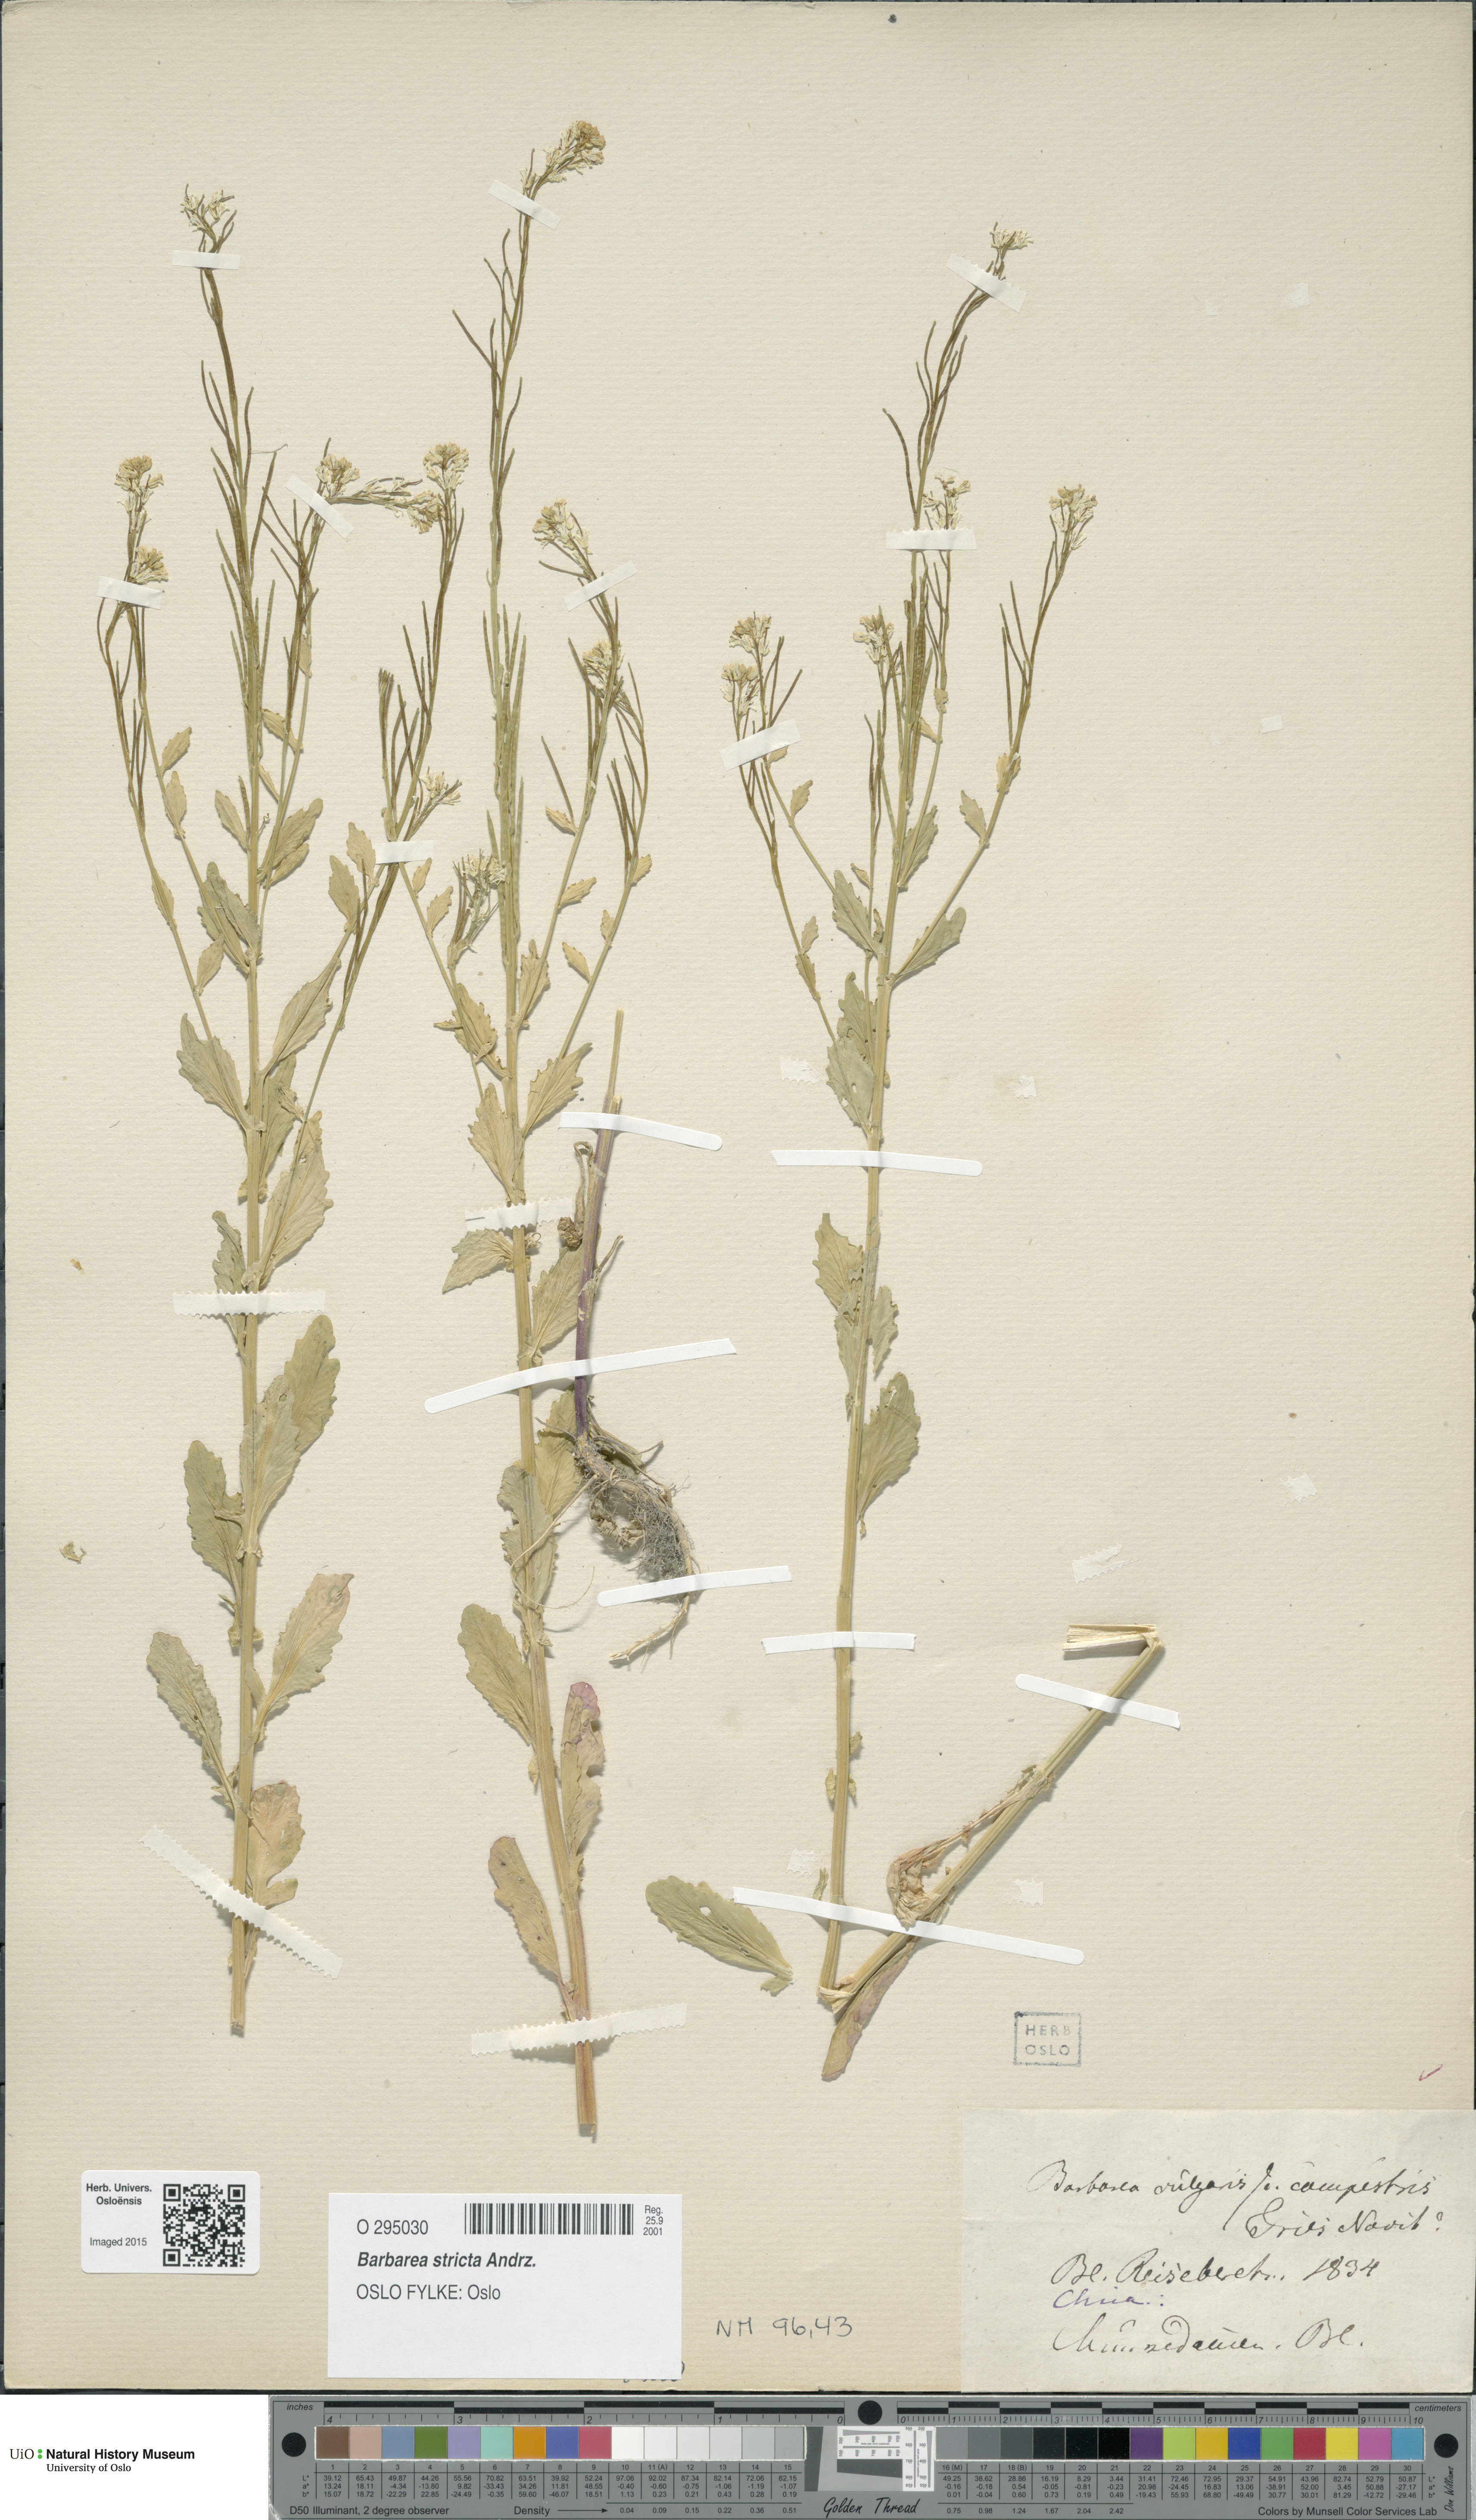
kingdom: Plantae
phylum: Tracheophyta
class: Magnoliopsida
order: Brassicales
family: Brassicaceae
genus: Barbarea
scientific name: Barbarea stricta
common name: Small-flowered winter-cress
